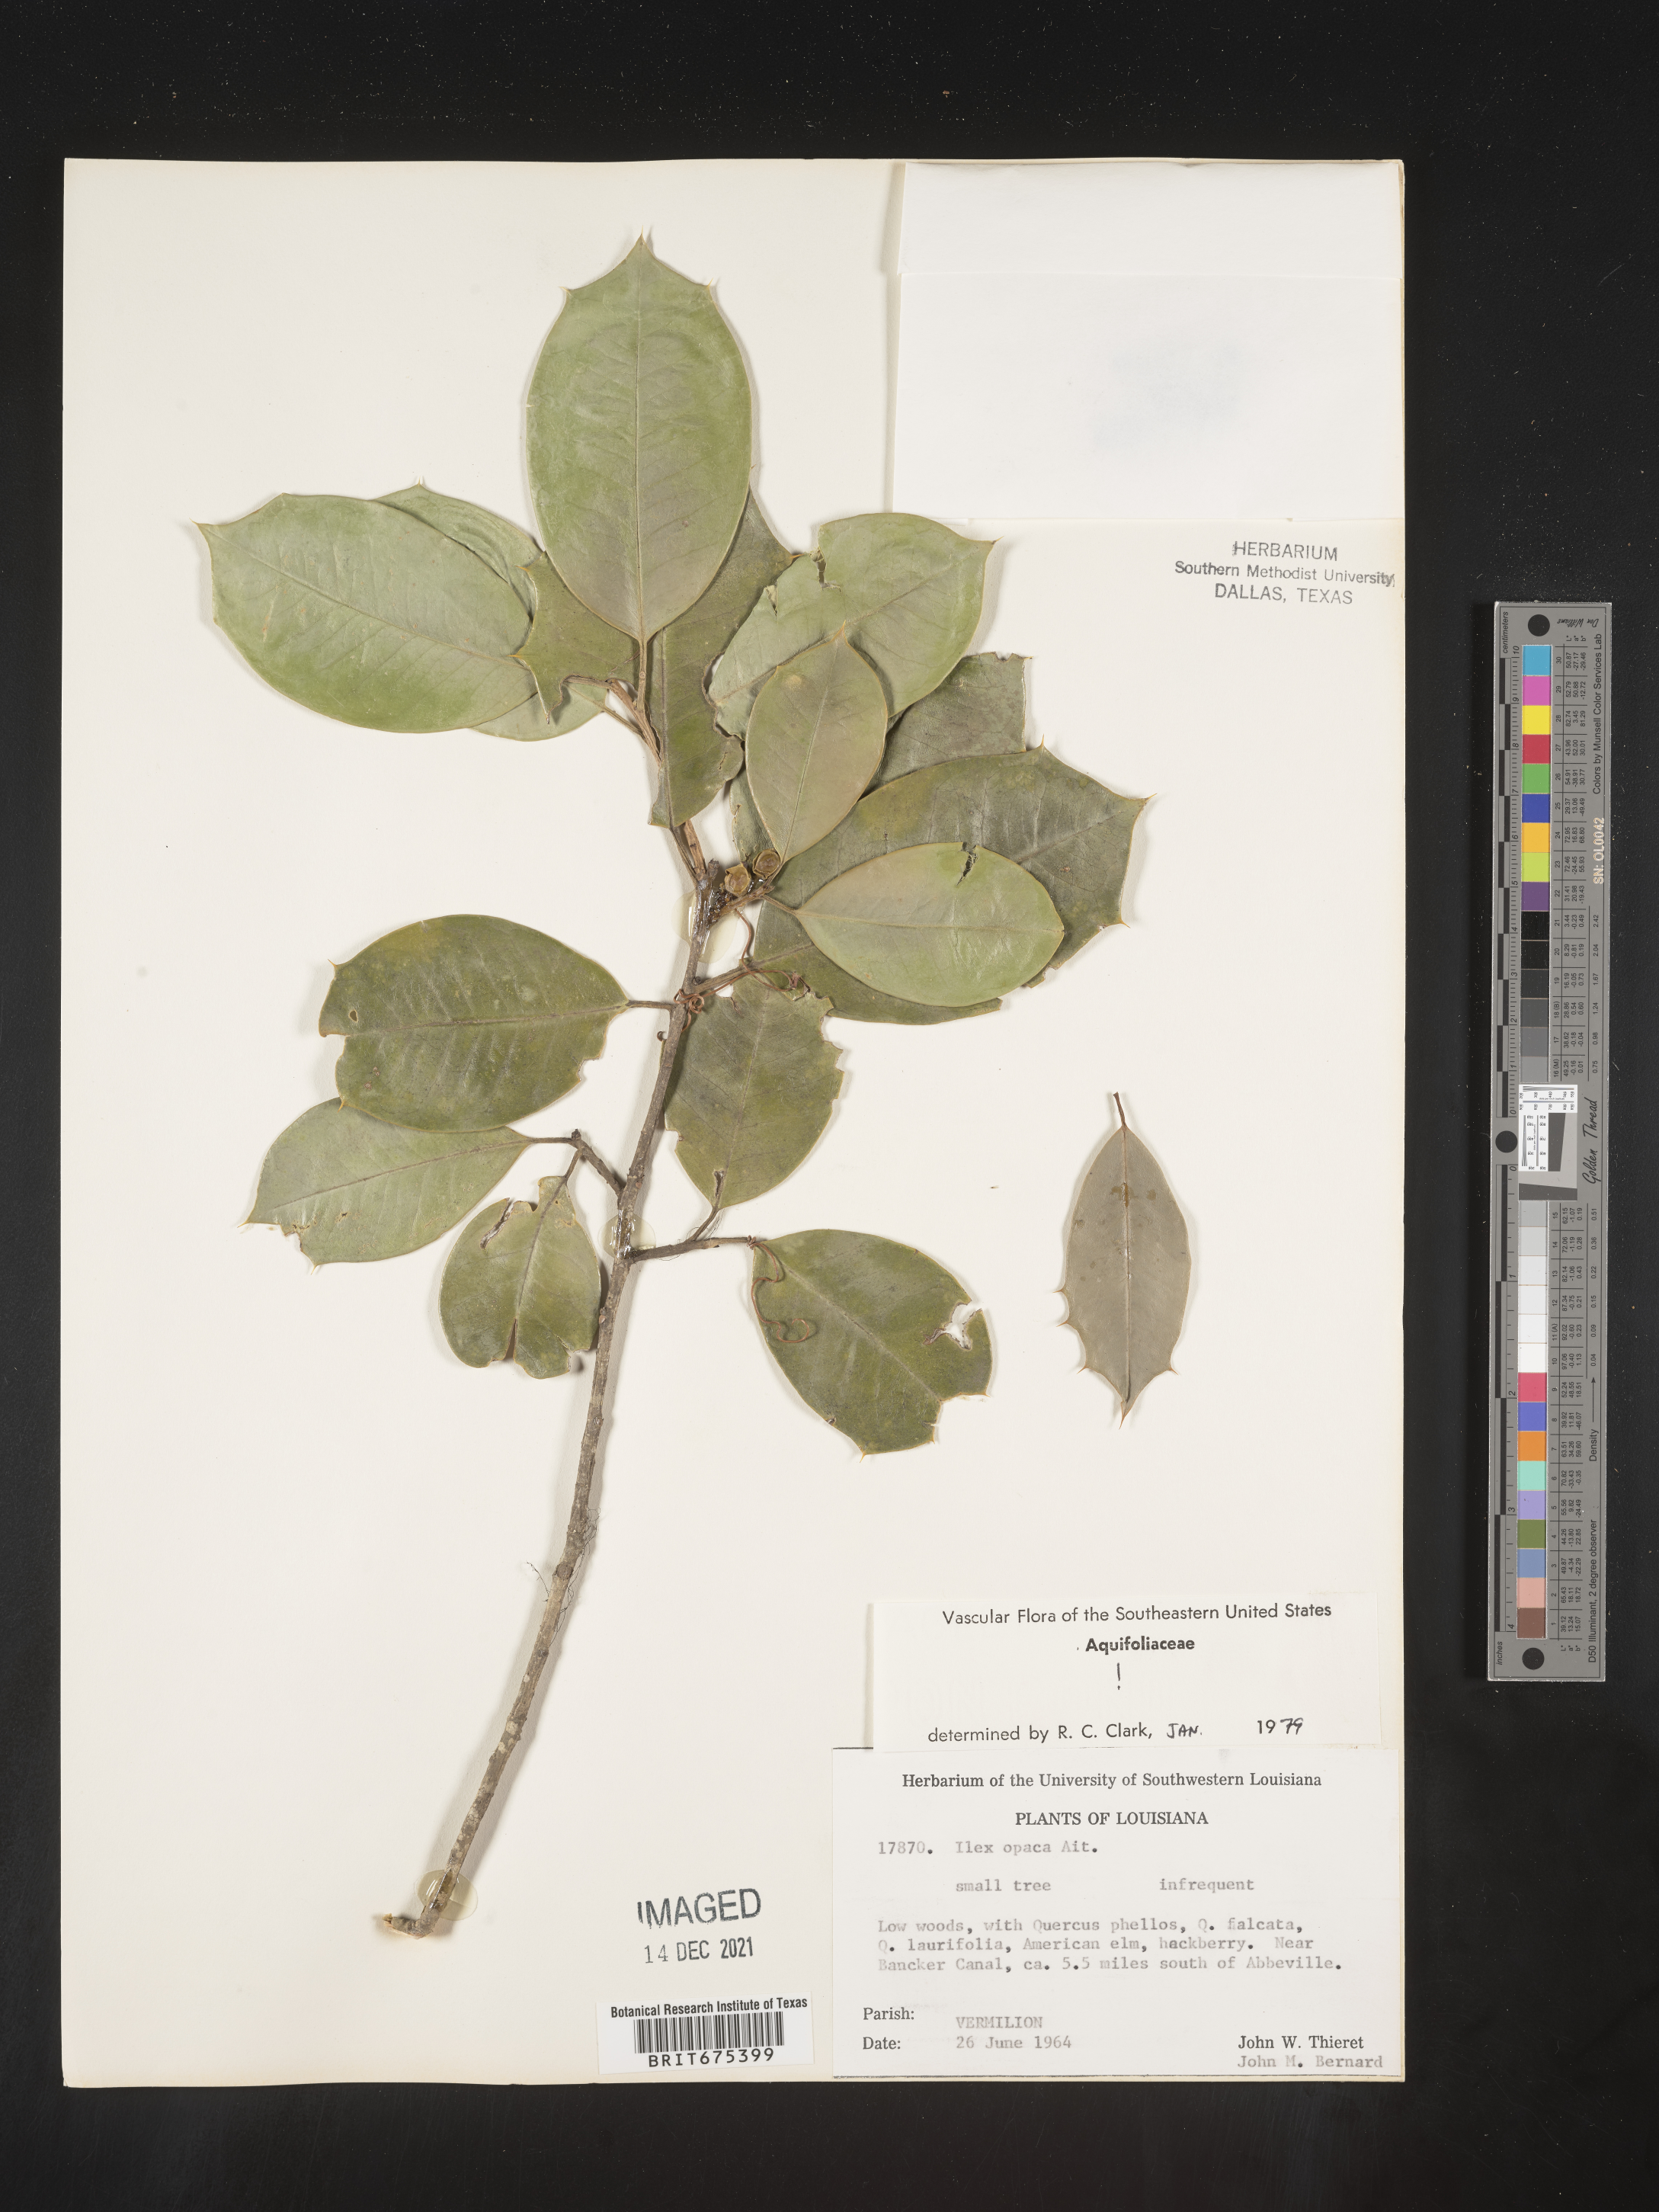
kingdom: Plantae
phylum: Tracheophyta
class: Magnoliopsida
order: Aquifoliales
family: Aquifoliaceae
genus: Ilex
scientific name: Ilex opaca
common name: American holly
